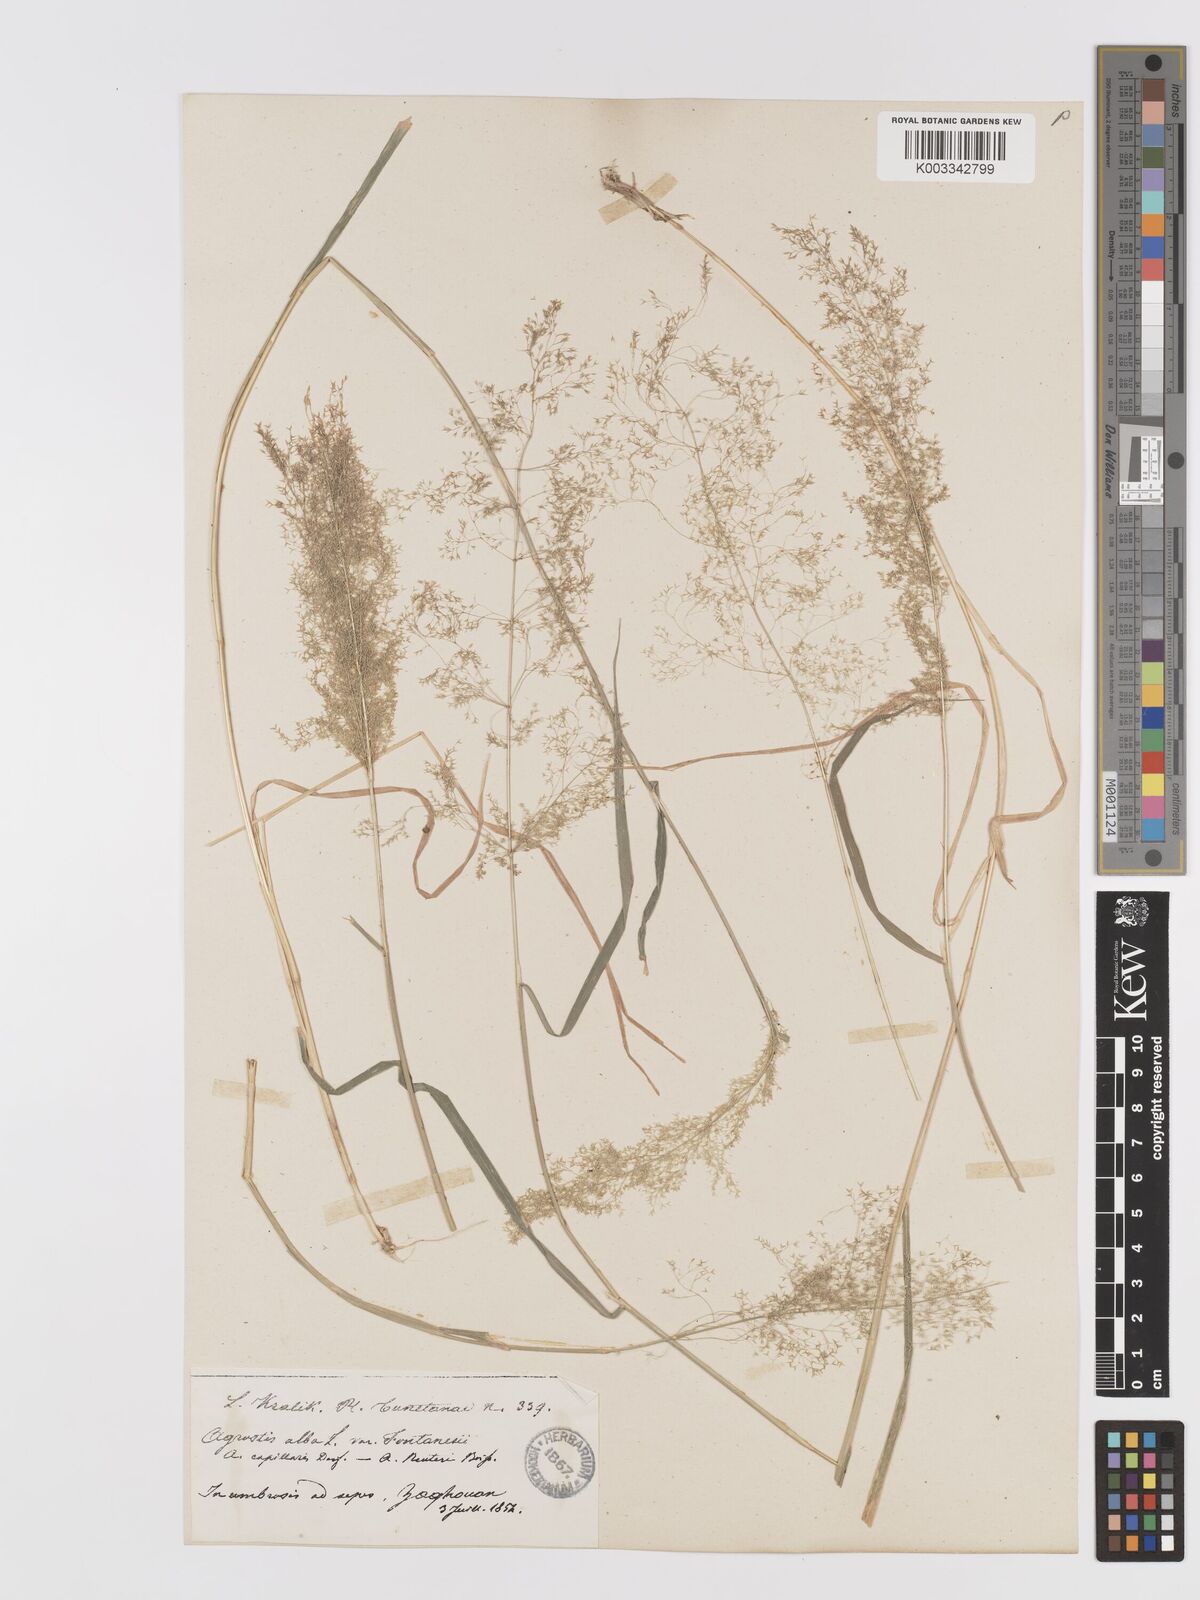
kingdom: Plantae
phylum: Tracheophyta
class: Liliopsida
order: Poales
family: Poaceae
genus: Agrostis
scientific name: Agrostis reuteri
